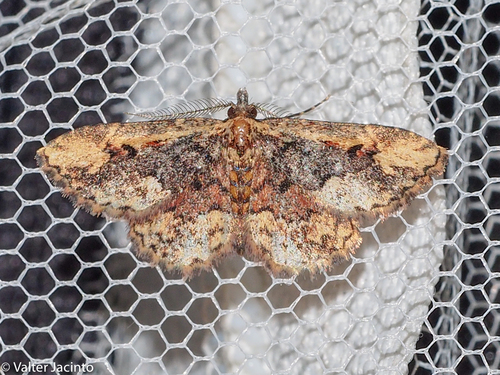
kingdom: Animalia
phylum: Arthropoda
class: Insecta
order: Lepidoptera
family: Erebidae
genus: Parascotia
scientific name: Parascotia nisseni
